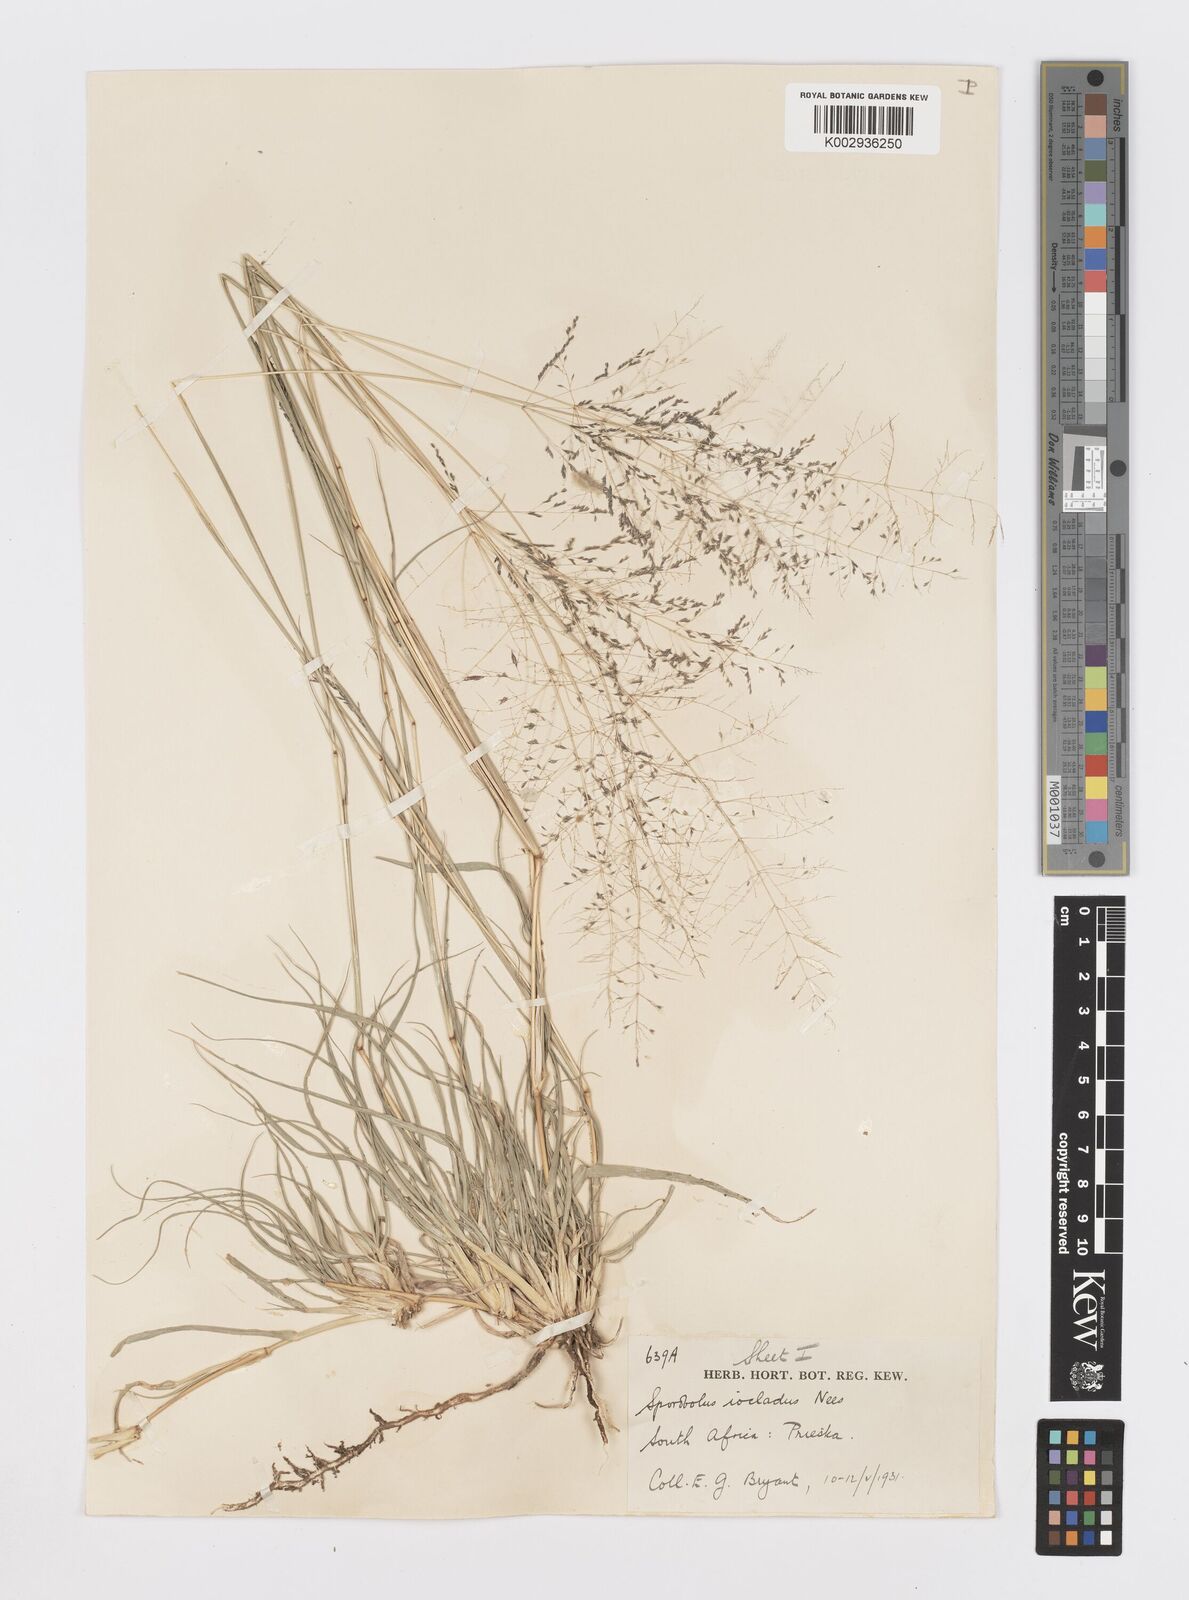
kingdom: Plantae
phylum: Tracheophyta
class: Liliopsida
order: Poales
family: Poaceae
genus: Sporobolus
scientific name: Sporobolus ioclados
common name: Pan dropseed
